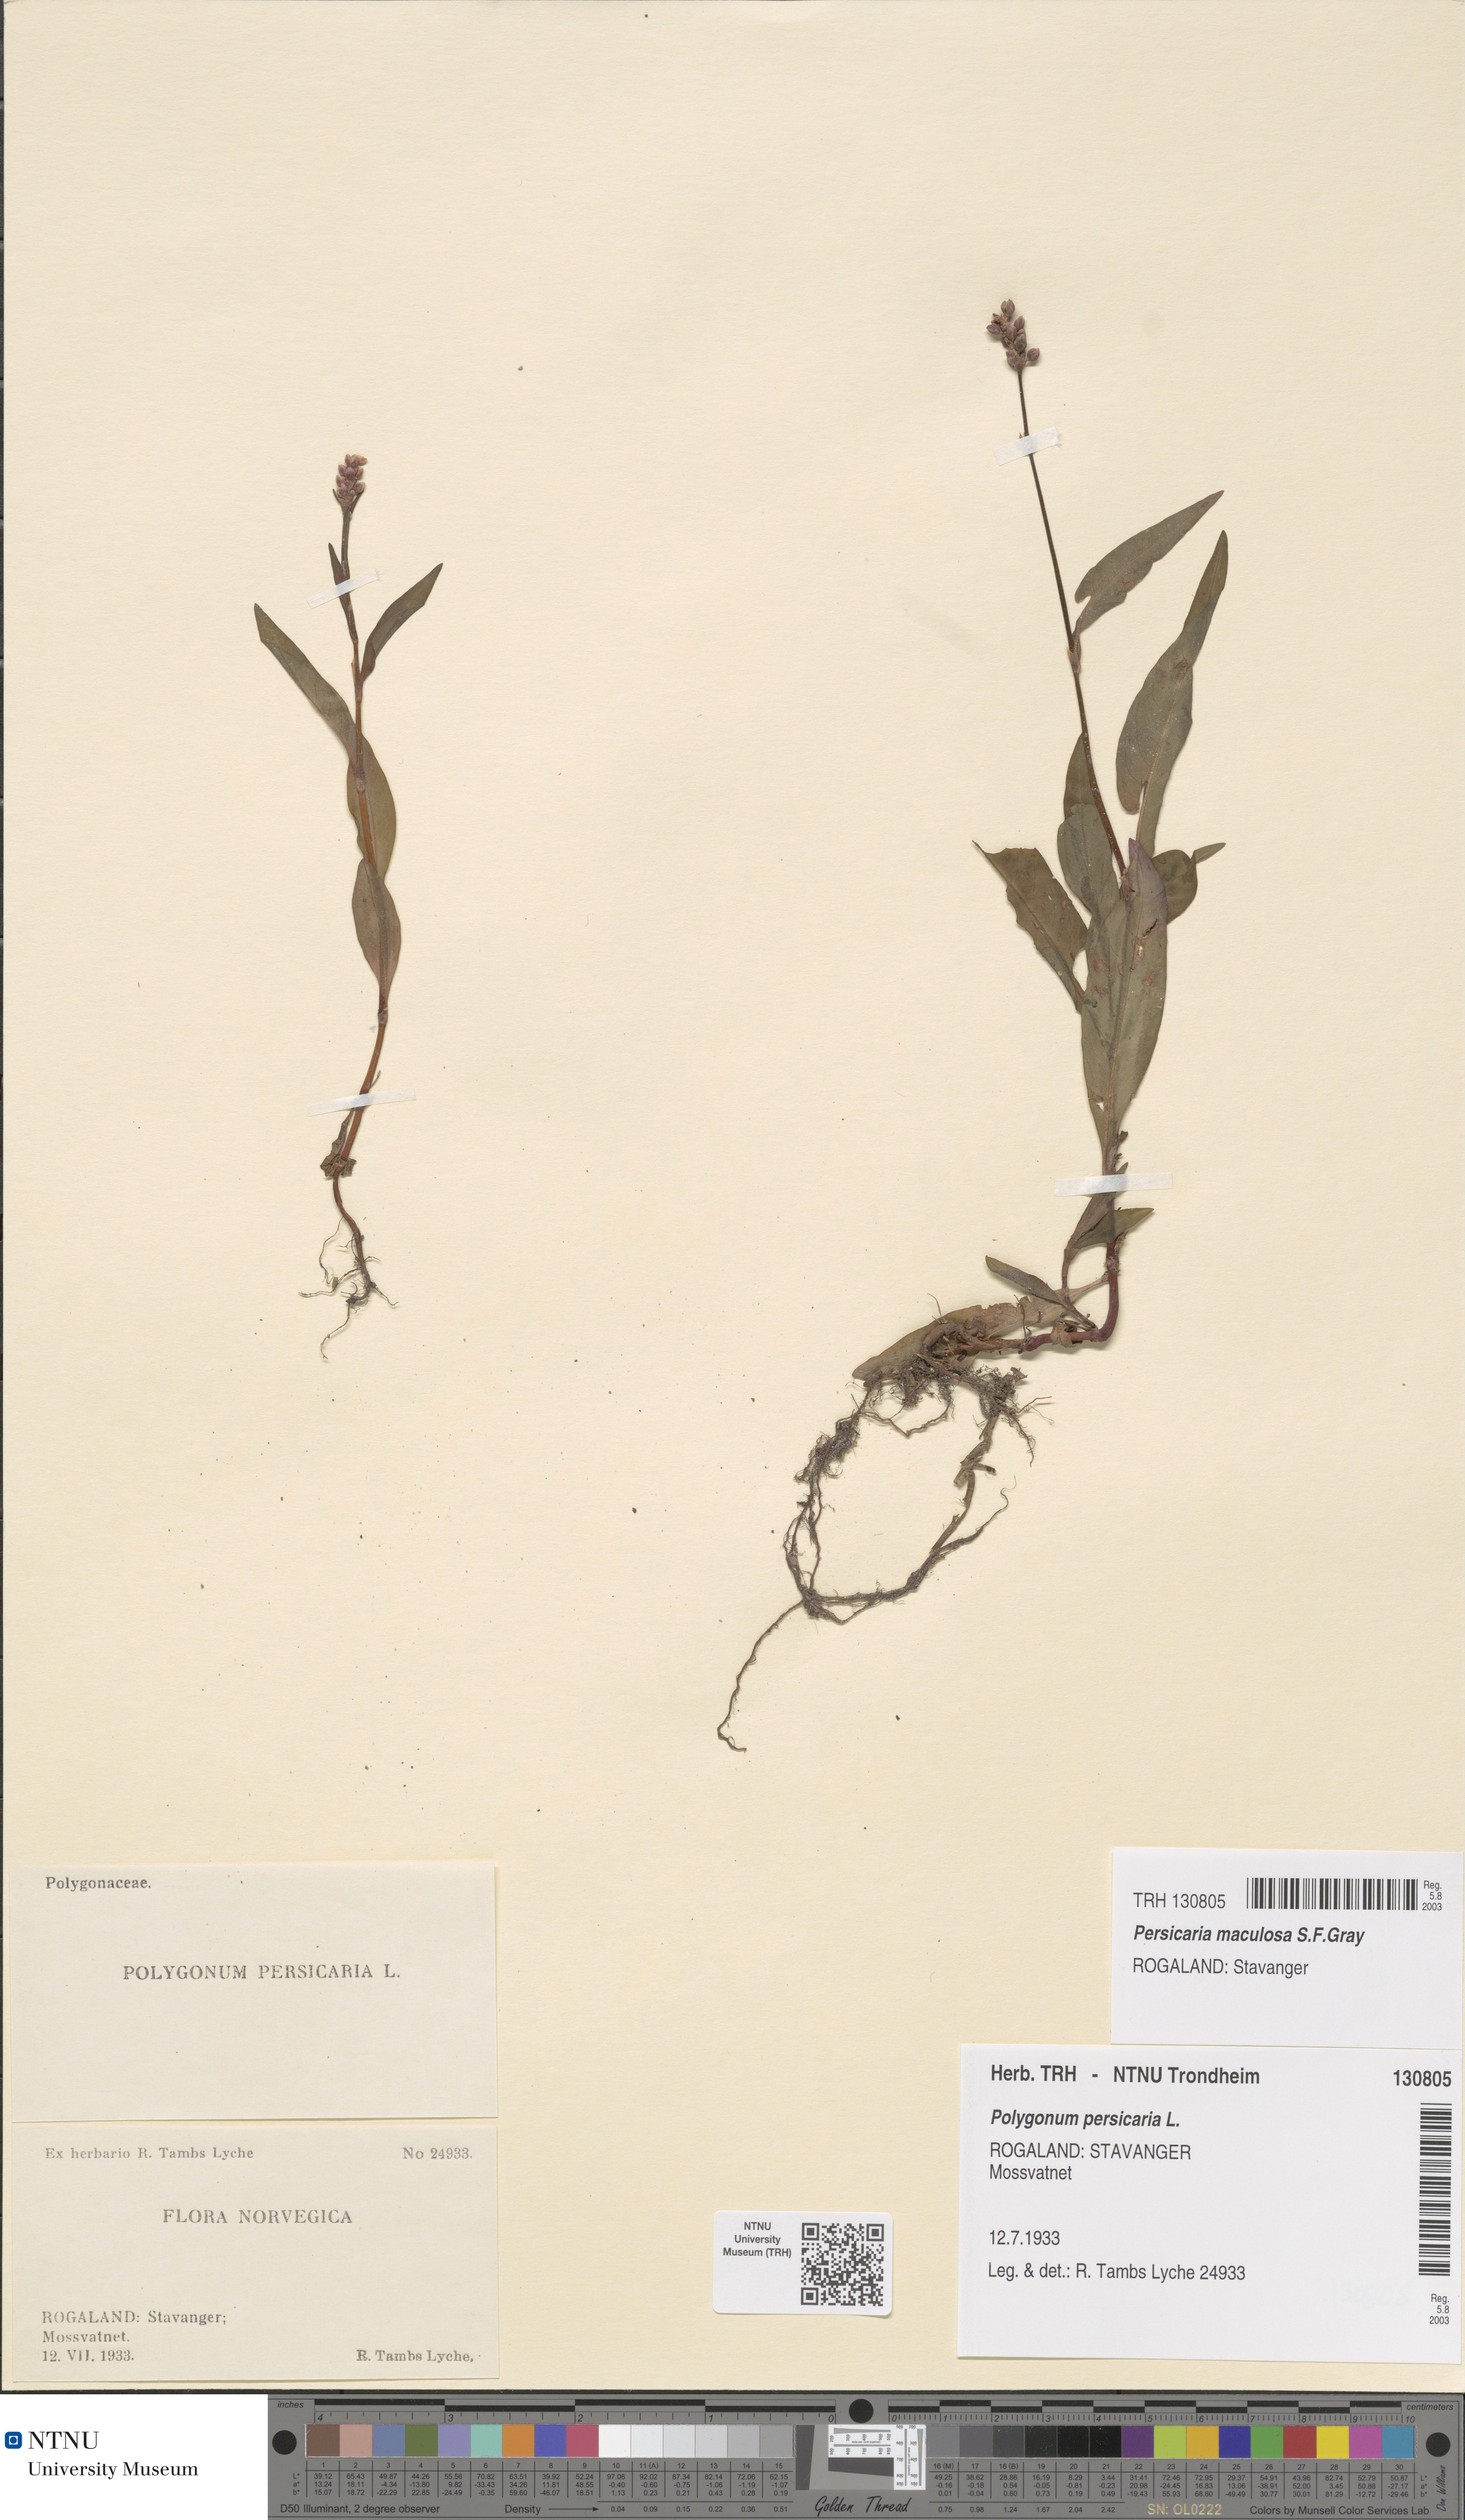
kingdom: Plantae
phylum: Tracheophyta
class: Magnoliopsida
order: Caryophyllales
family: Polygonaceae
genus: Persicaria
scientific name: Persicaria maculosa
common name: Redshank
